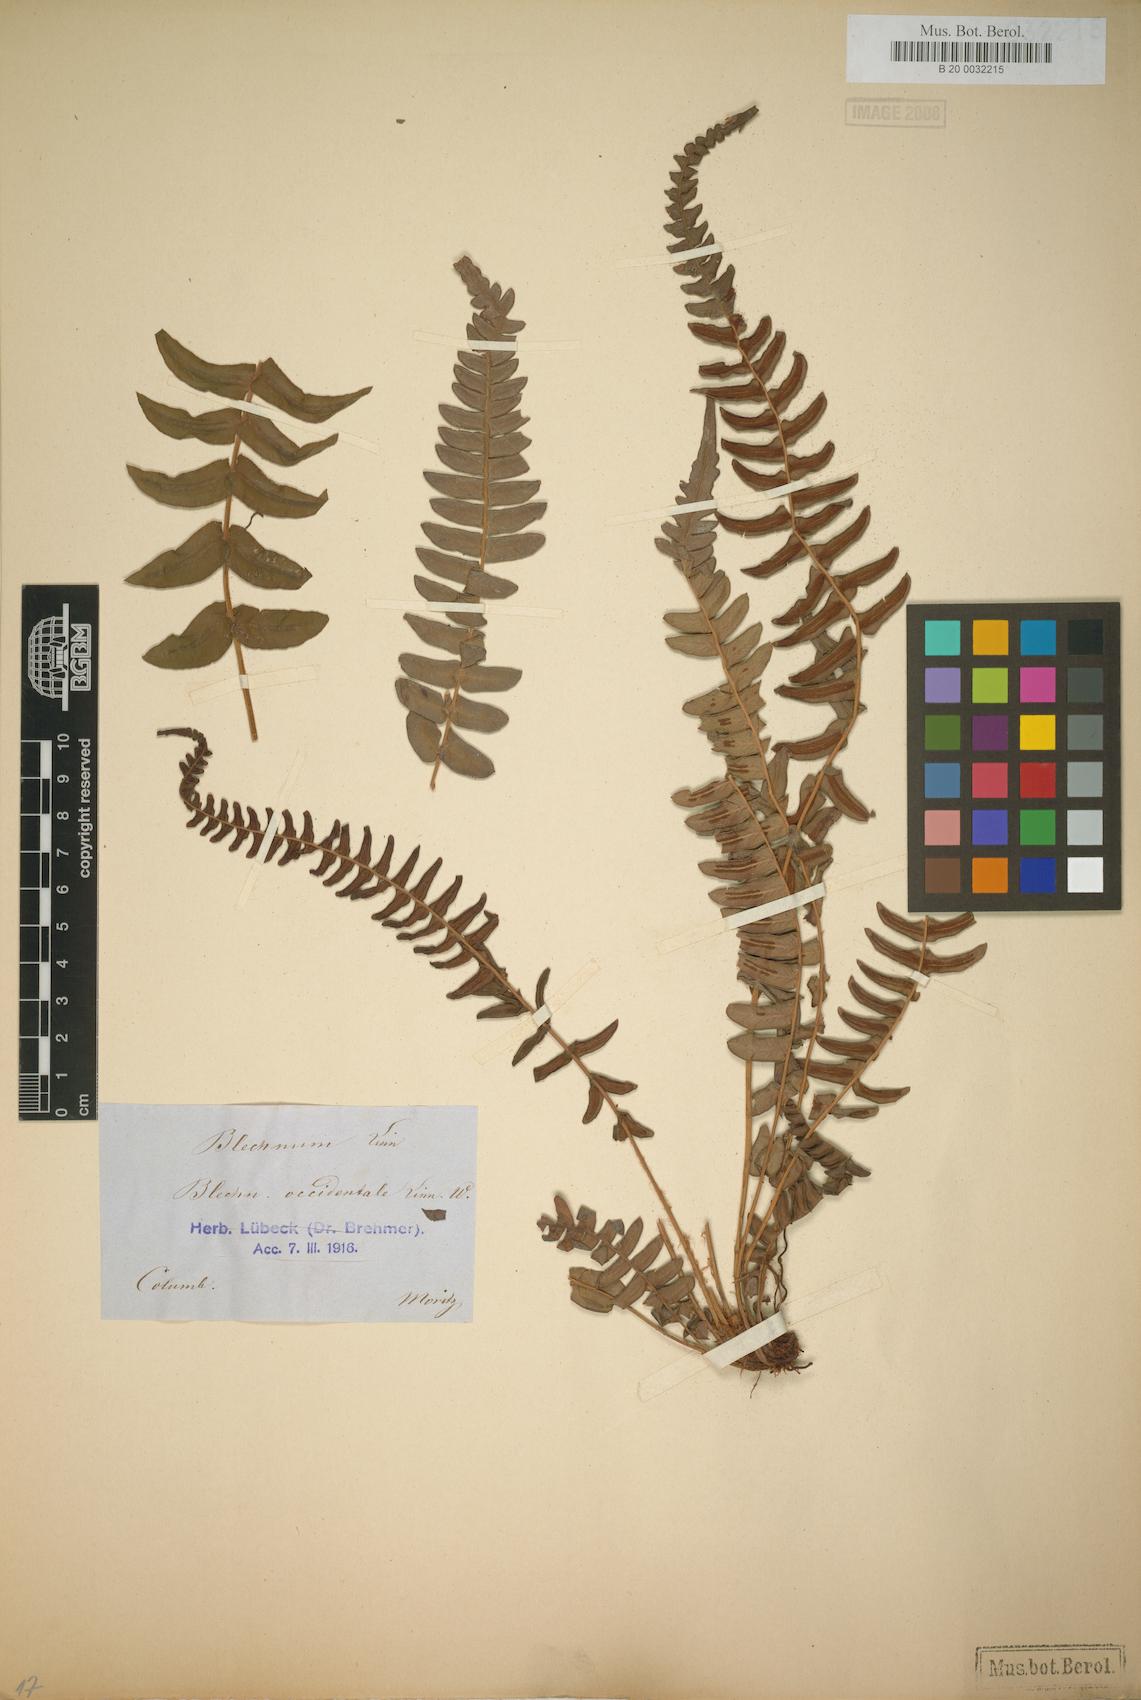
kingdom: Plantae
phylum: Tracheophyta
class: Polypodiopsida
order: Polypodiales
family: Blechnaceae
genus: Blechnum
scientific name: Blechnum occidentale
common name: Hammock fern
